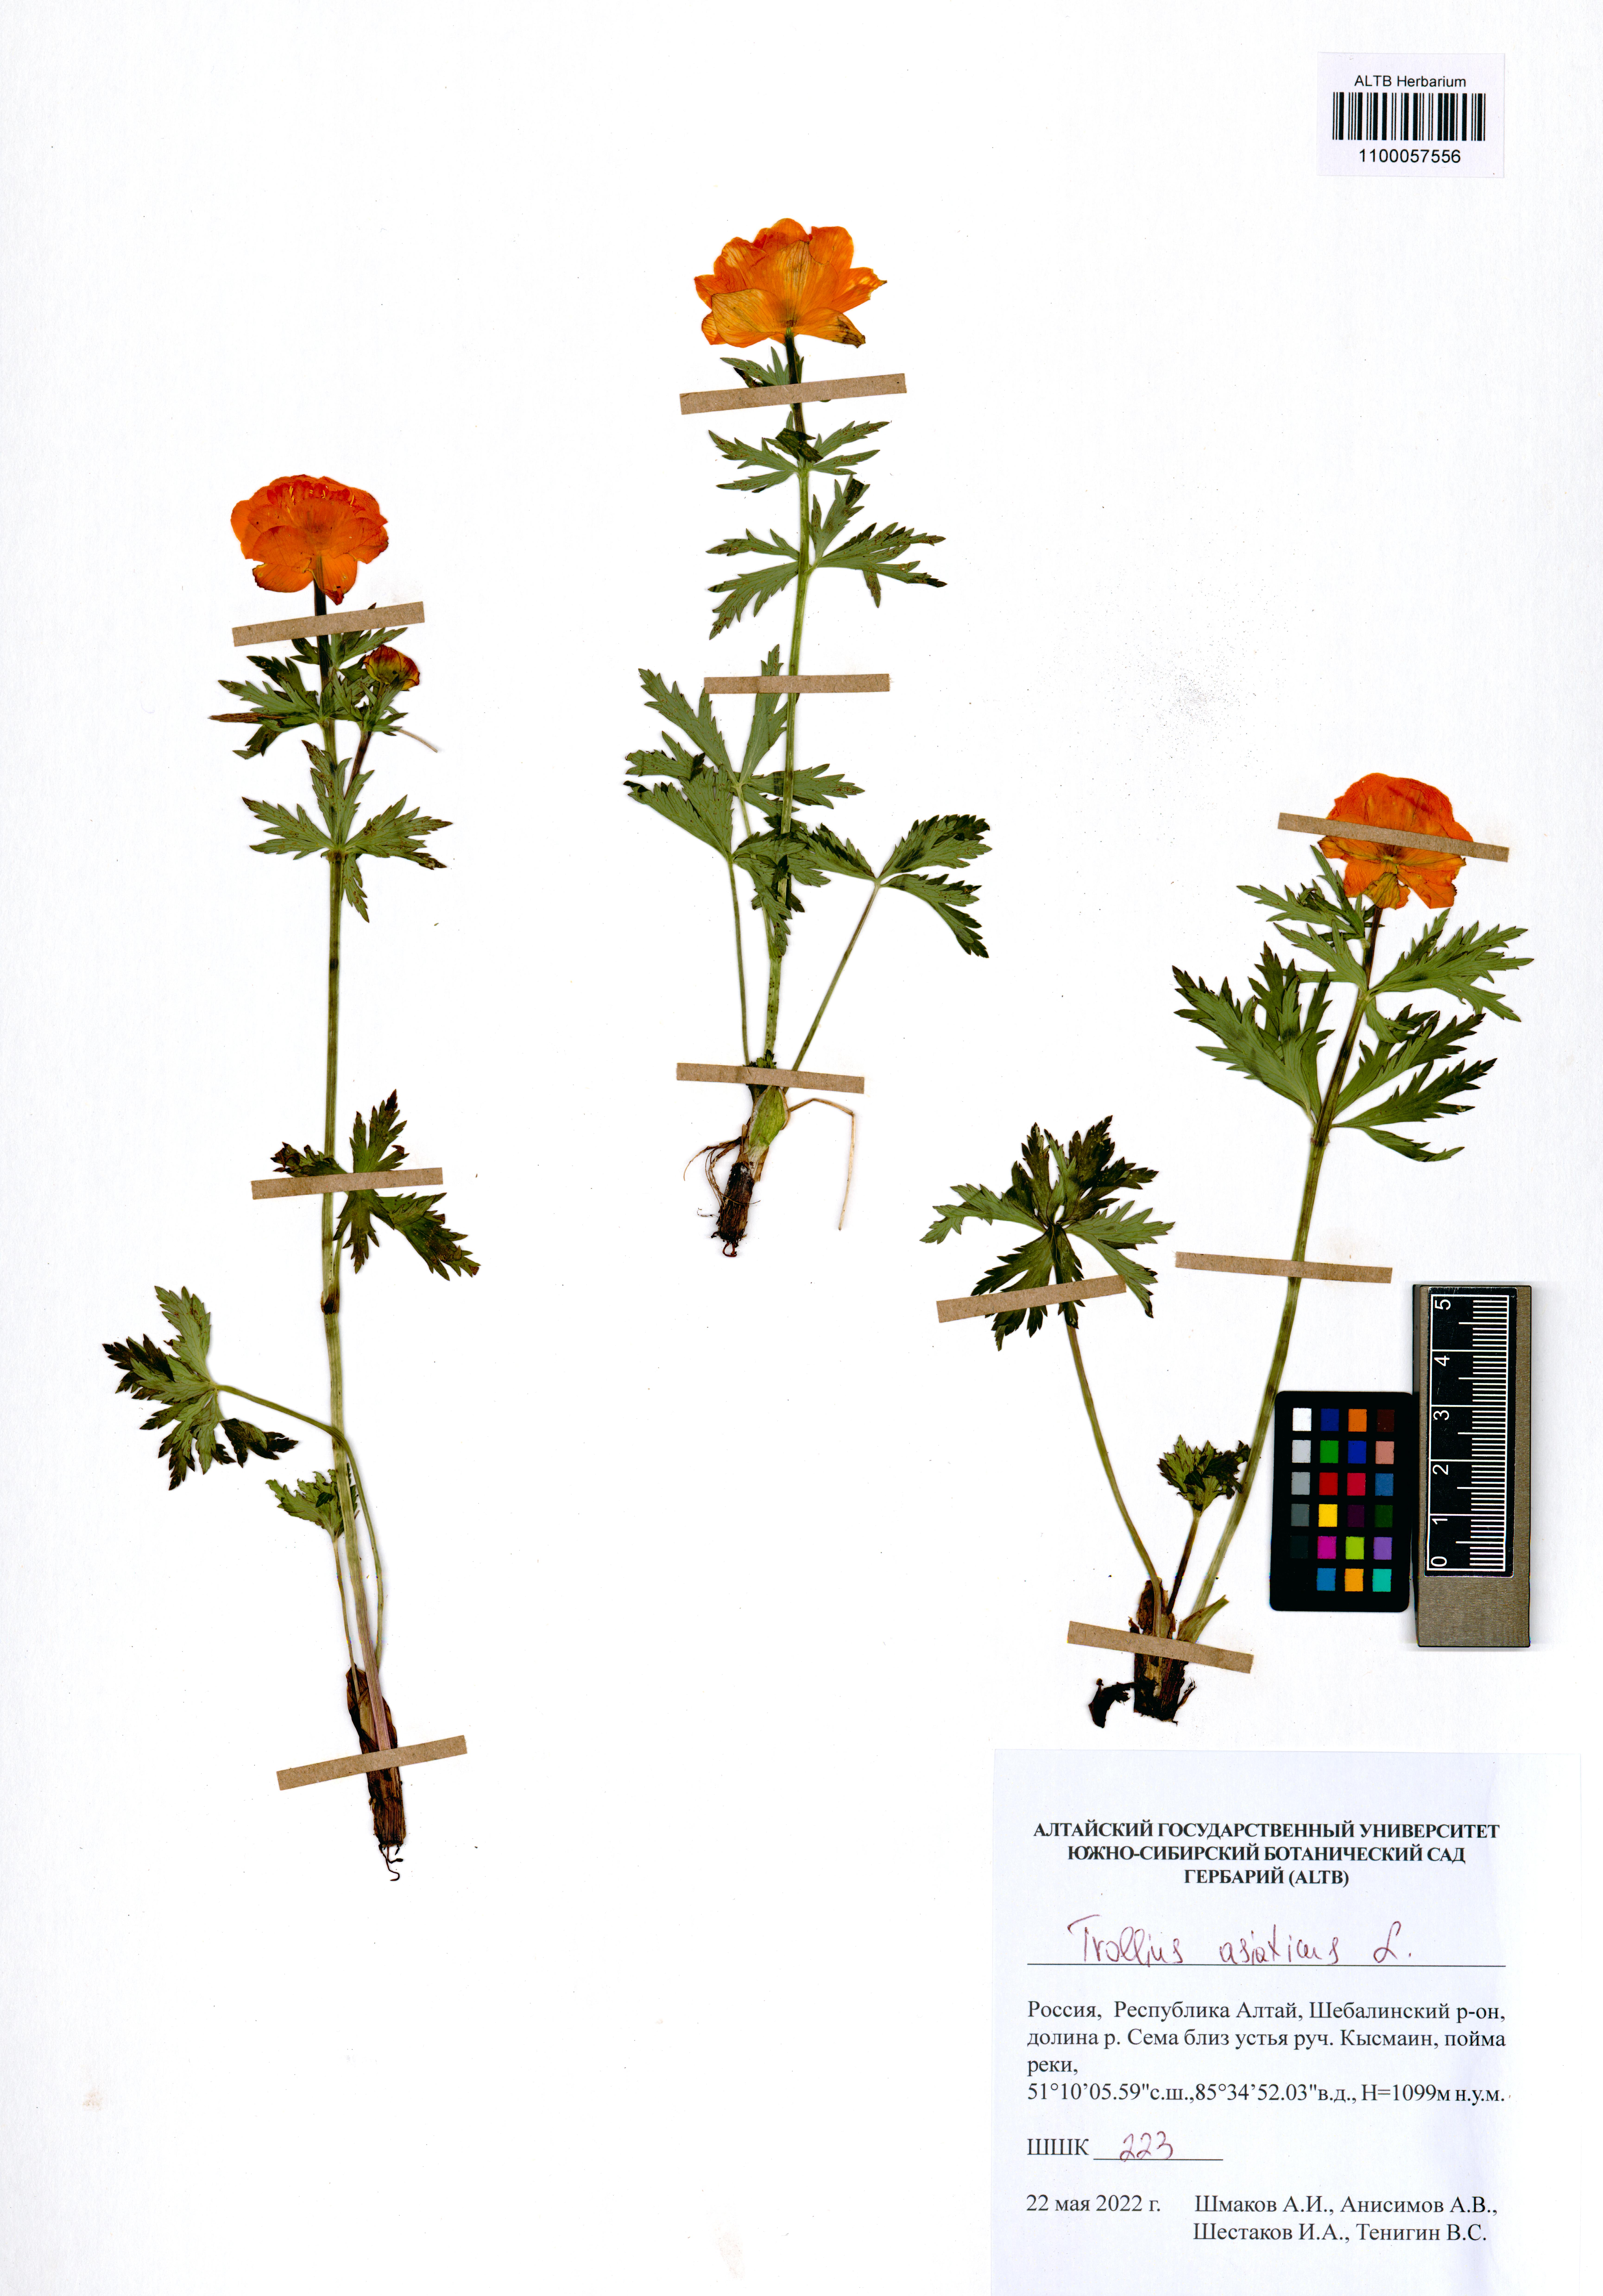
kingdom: Plantae
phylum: Tracheophyta
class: Magnoliopsida
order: Ranunculales
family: Ranunculaceae
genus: Trollius
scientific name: Trollius asiaticus
